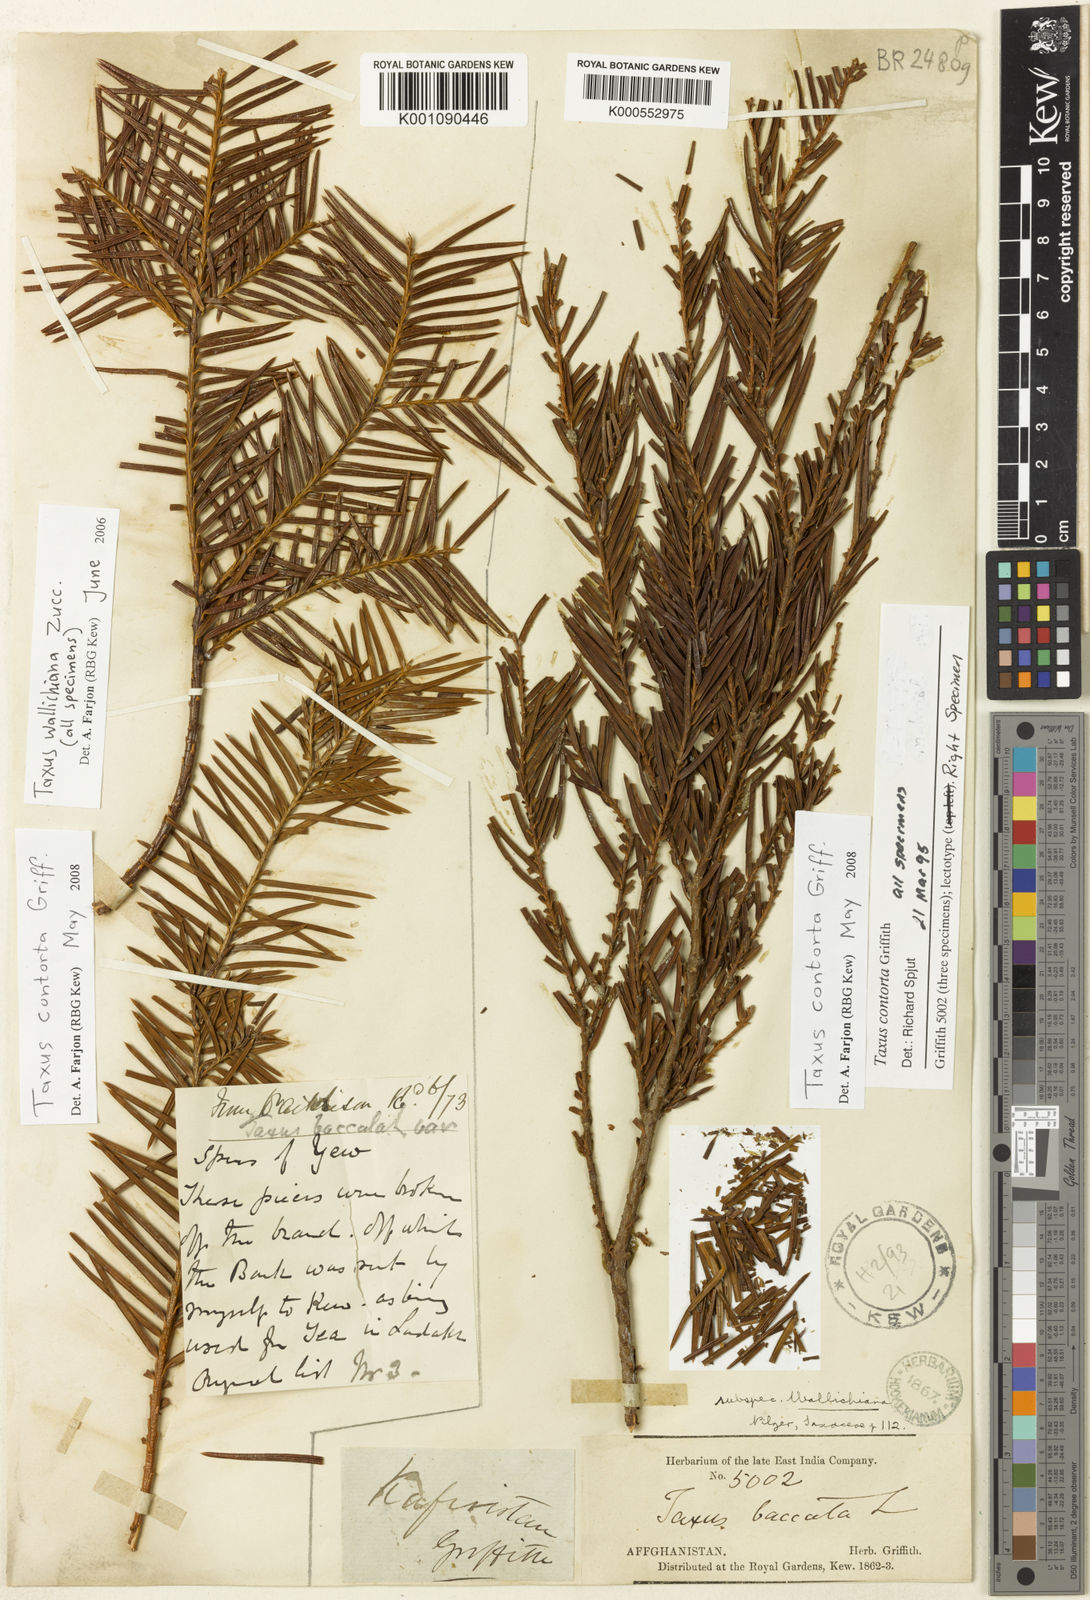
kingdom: Plantae
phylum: Tracheophyta
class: Pinopsida
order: Pinales
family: Taxaceae
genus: Taxus
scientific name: Taxus contorta
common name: West himalayan yew
